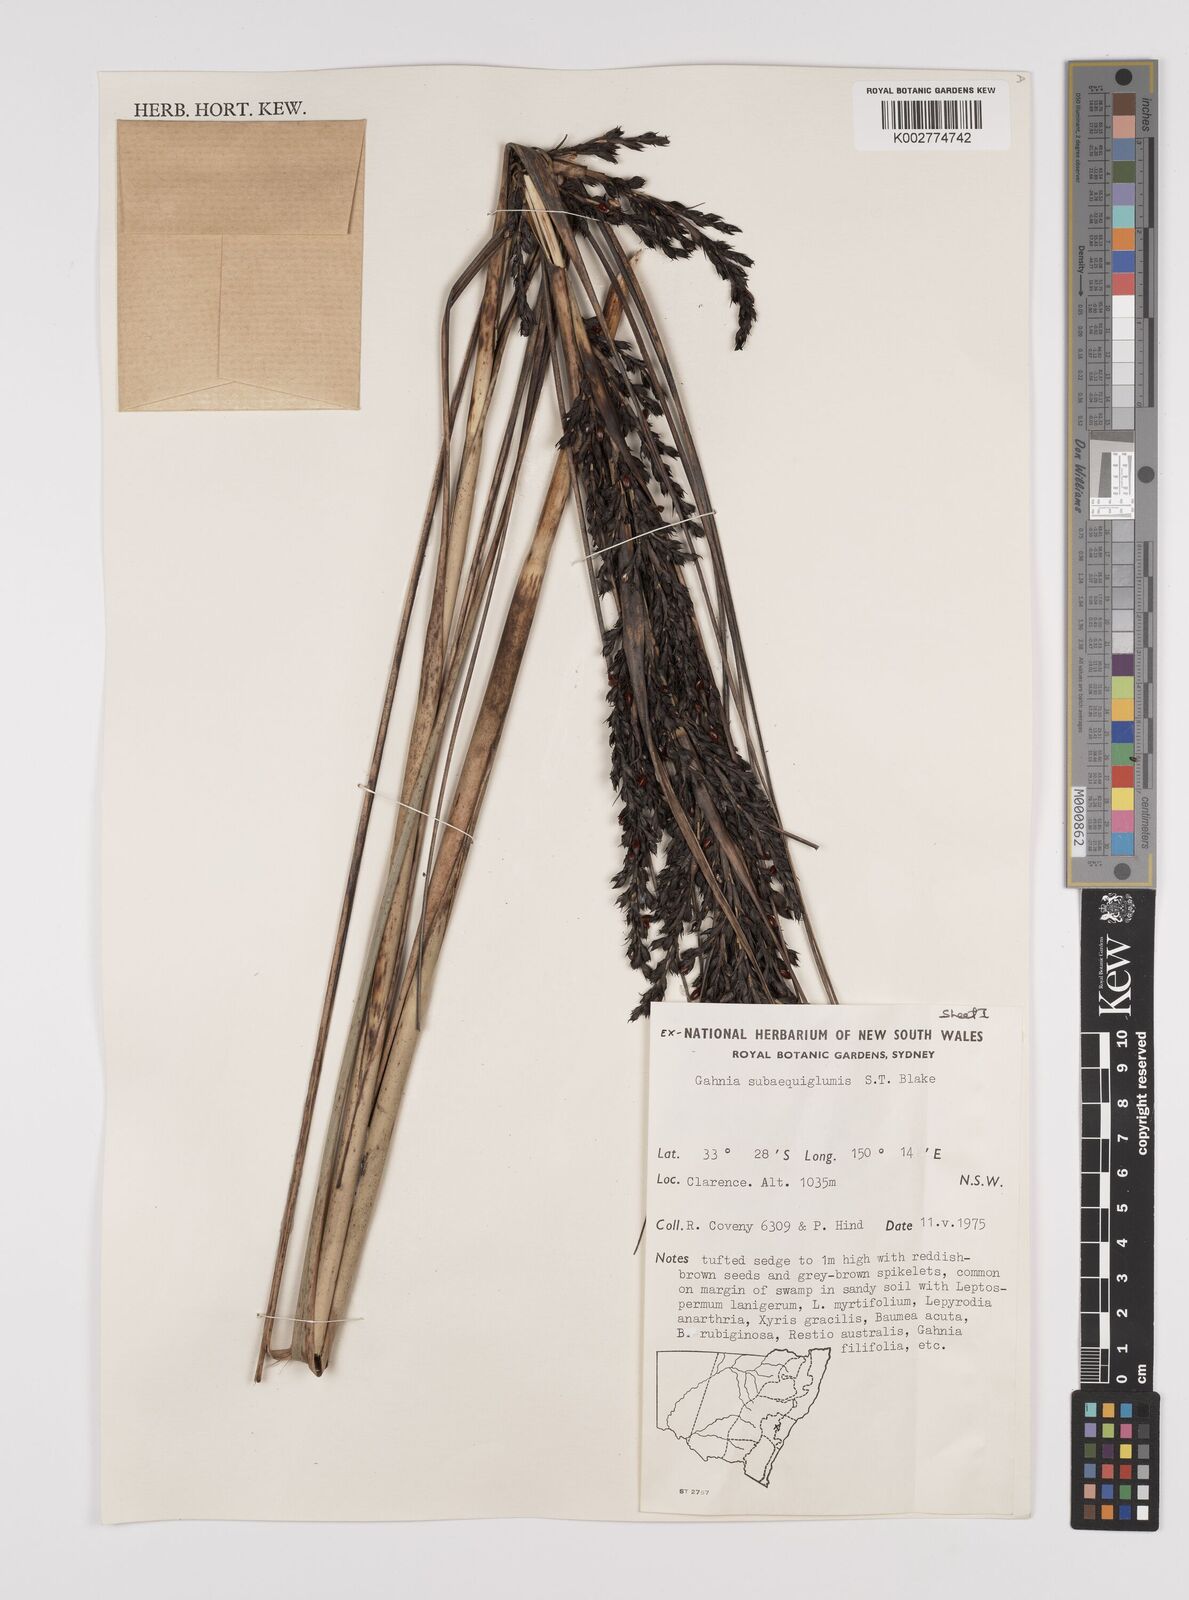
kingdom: Plantae
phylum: Tracheophyta
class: Liliopsida
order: Poales
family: Cyperaceae
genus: Gahnia
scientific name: Gahnia subaequiglumis
